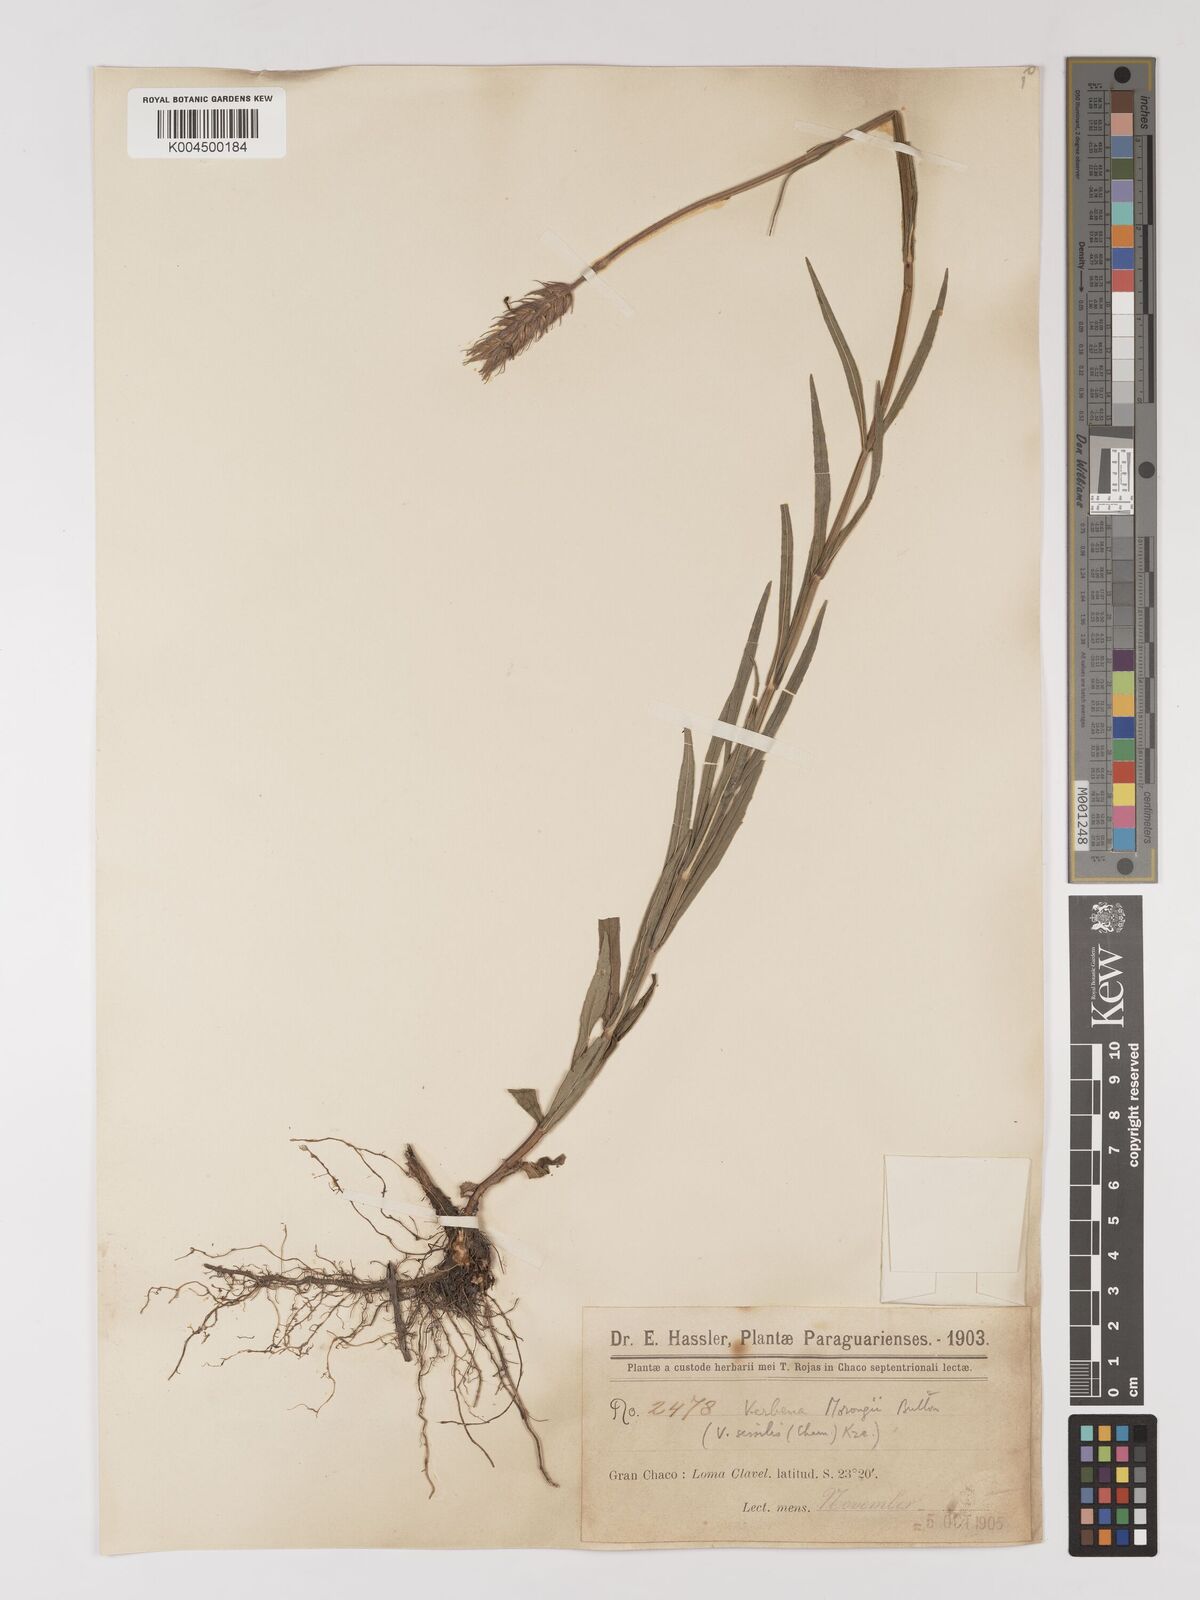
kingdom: Plantae
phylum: Tracheophyta
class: Magnoliopsida
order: Lamiales
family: Verbenaceae
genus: Verbena
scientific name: Verbena
